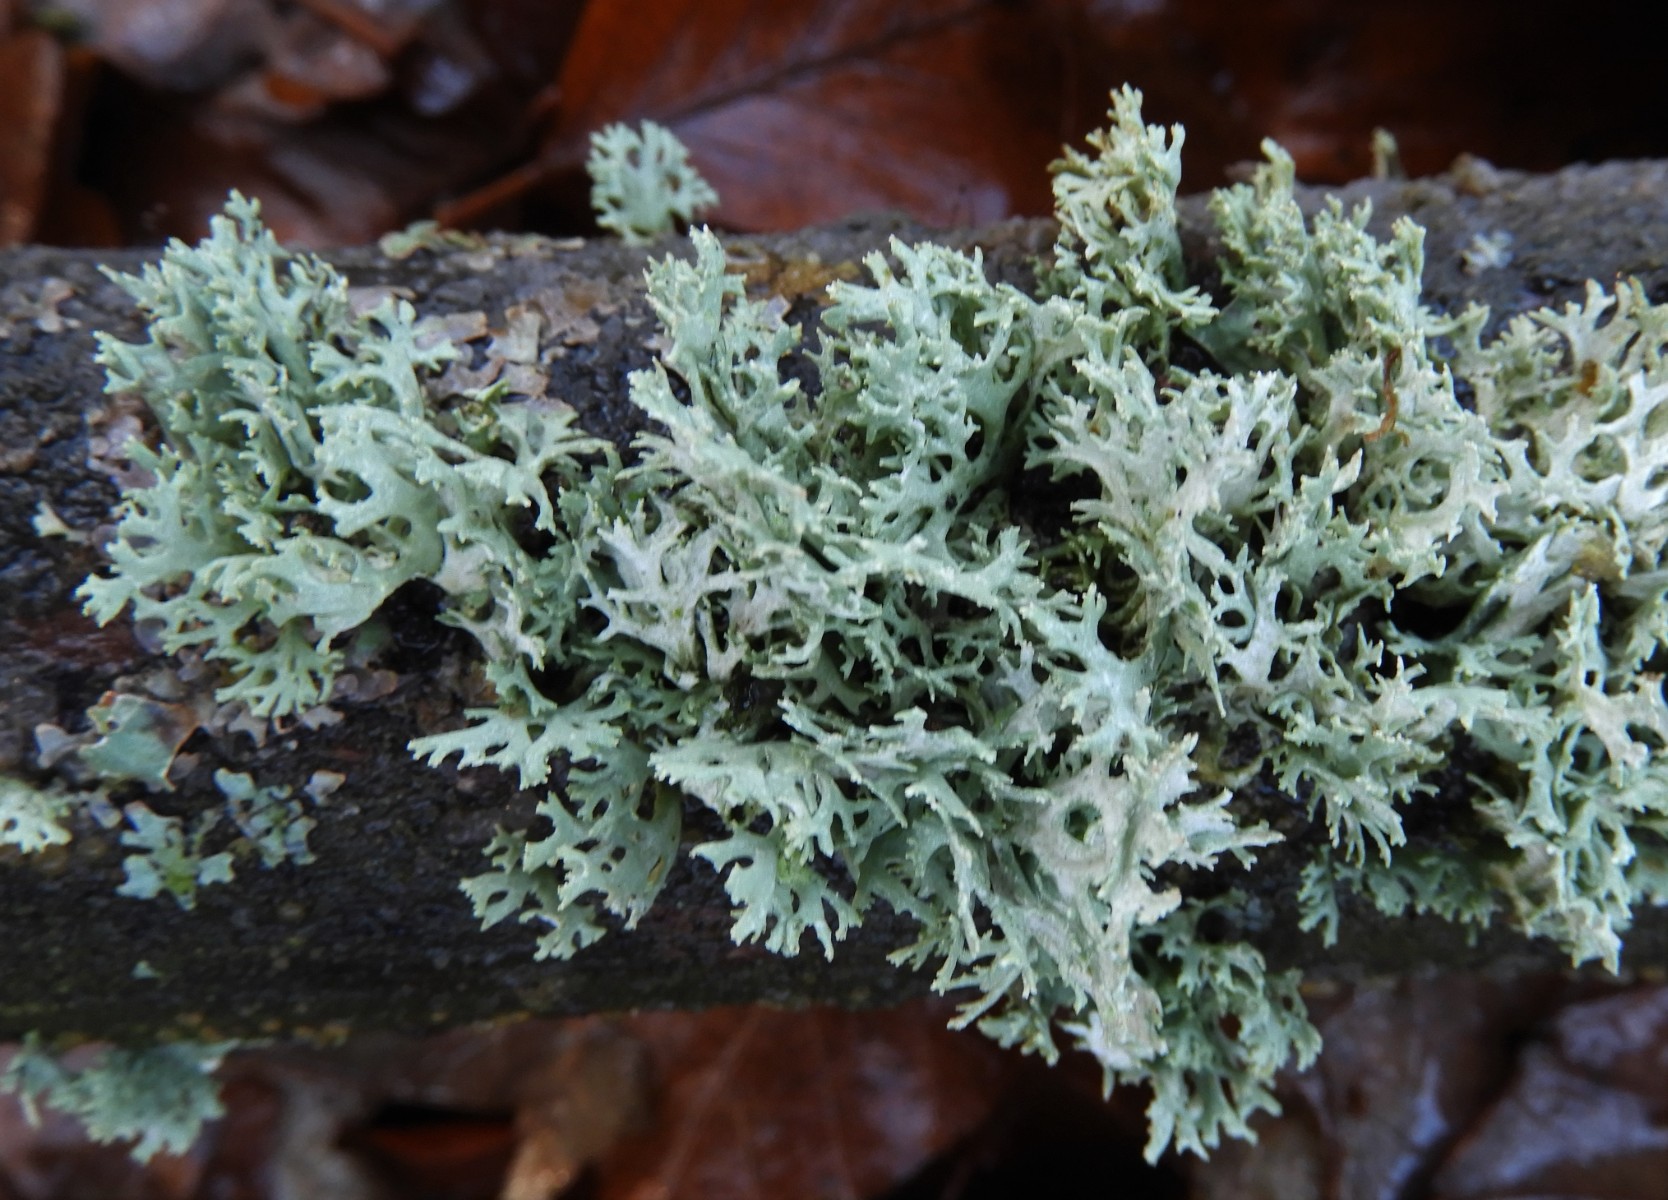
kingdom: Fungi
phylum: Ascomycota
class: Lecanoromycetes
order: Lecanorales
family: Parmeliaceae
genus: Evernia
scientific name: Evernia prunastri
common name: almindelig slåenlav
